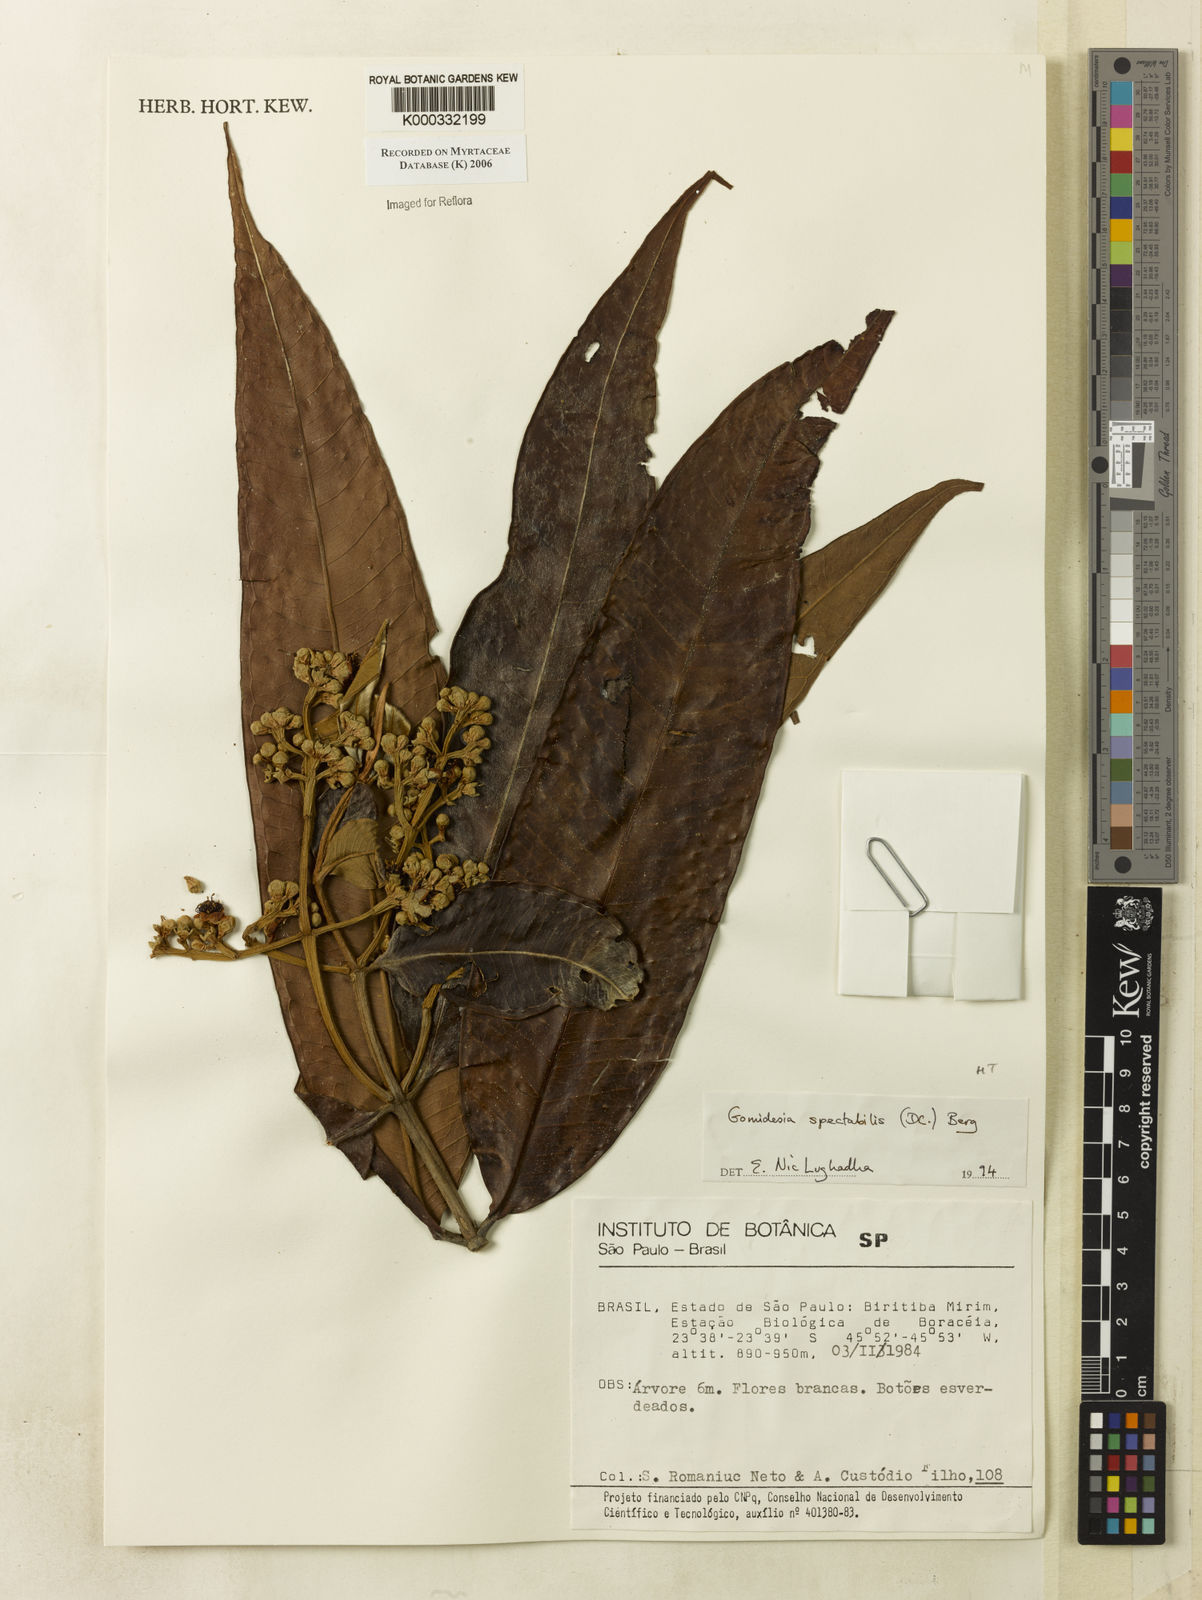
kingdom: Plantae
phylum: Tracheophyta
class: Magnoliopsida
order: Myrtales
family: Myrtaceae
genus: Myrcia
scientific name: Myrcia spectabilis
